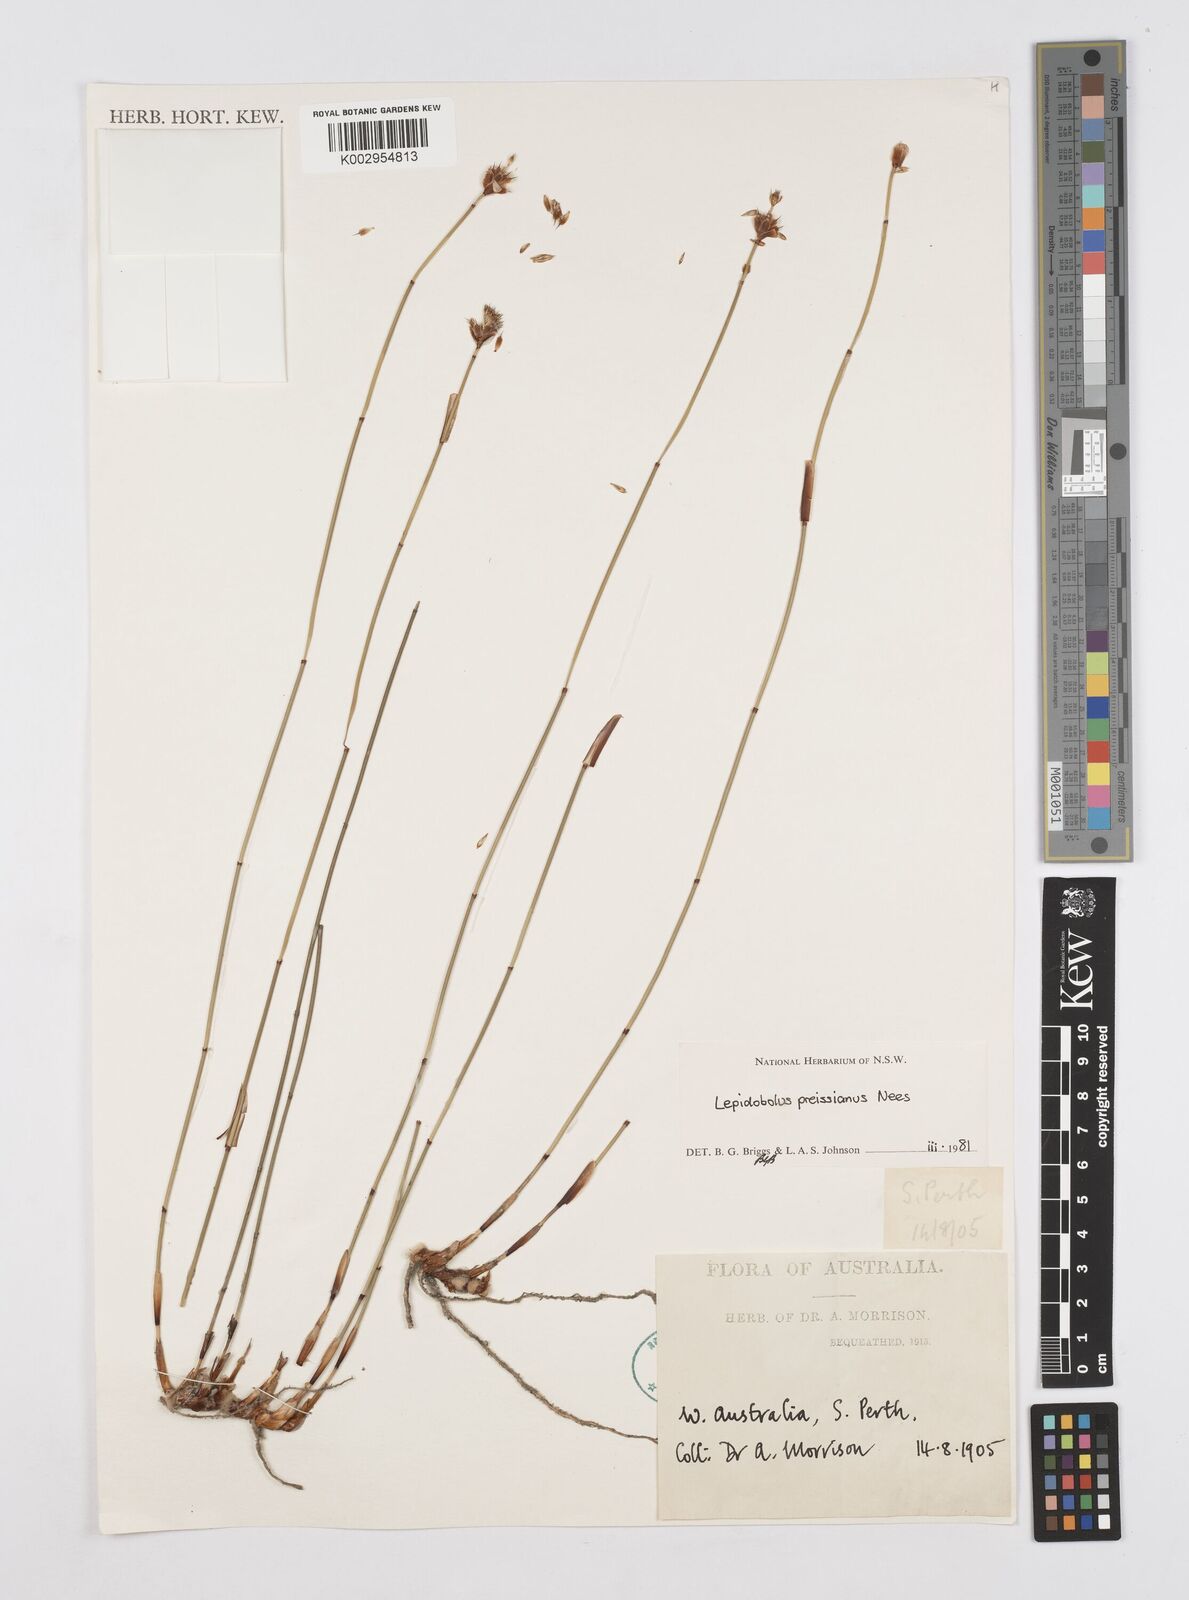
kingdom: Plantae
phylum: Tracheophyta
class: Liliopsida
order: Poales
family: Restionaceae
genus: Lepidobolus
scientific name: Lepidobolus preissianus
